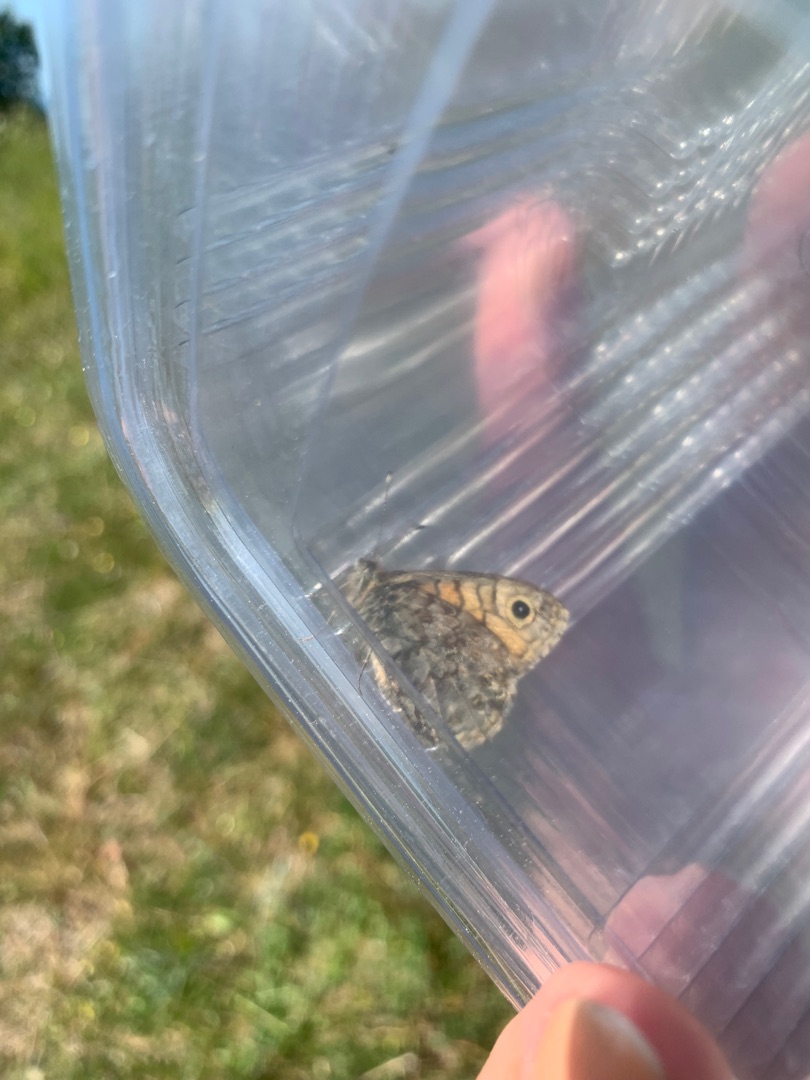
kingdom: Animalia
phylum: Arthropoda
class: Insecta
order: Lepidoptera
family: Nymphalidae
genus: Pararge
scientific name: Pararge Lasiommata megera
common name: Vejrandøje
